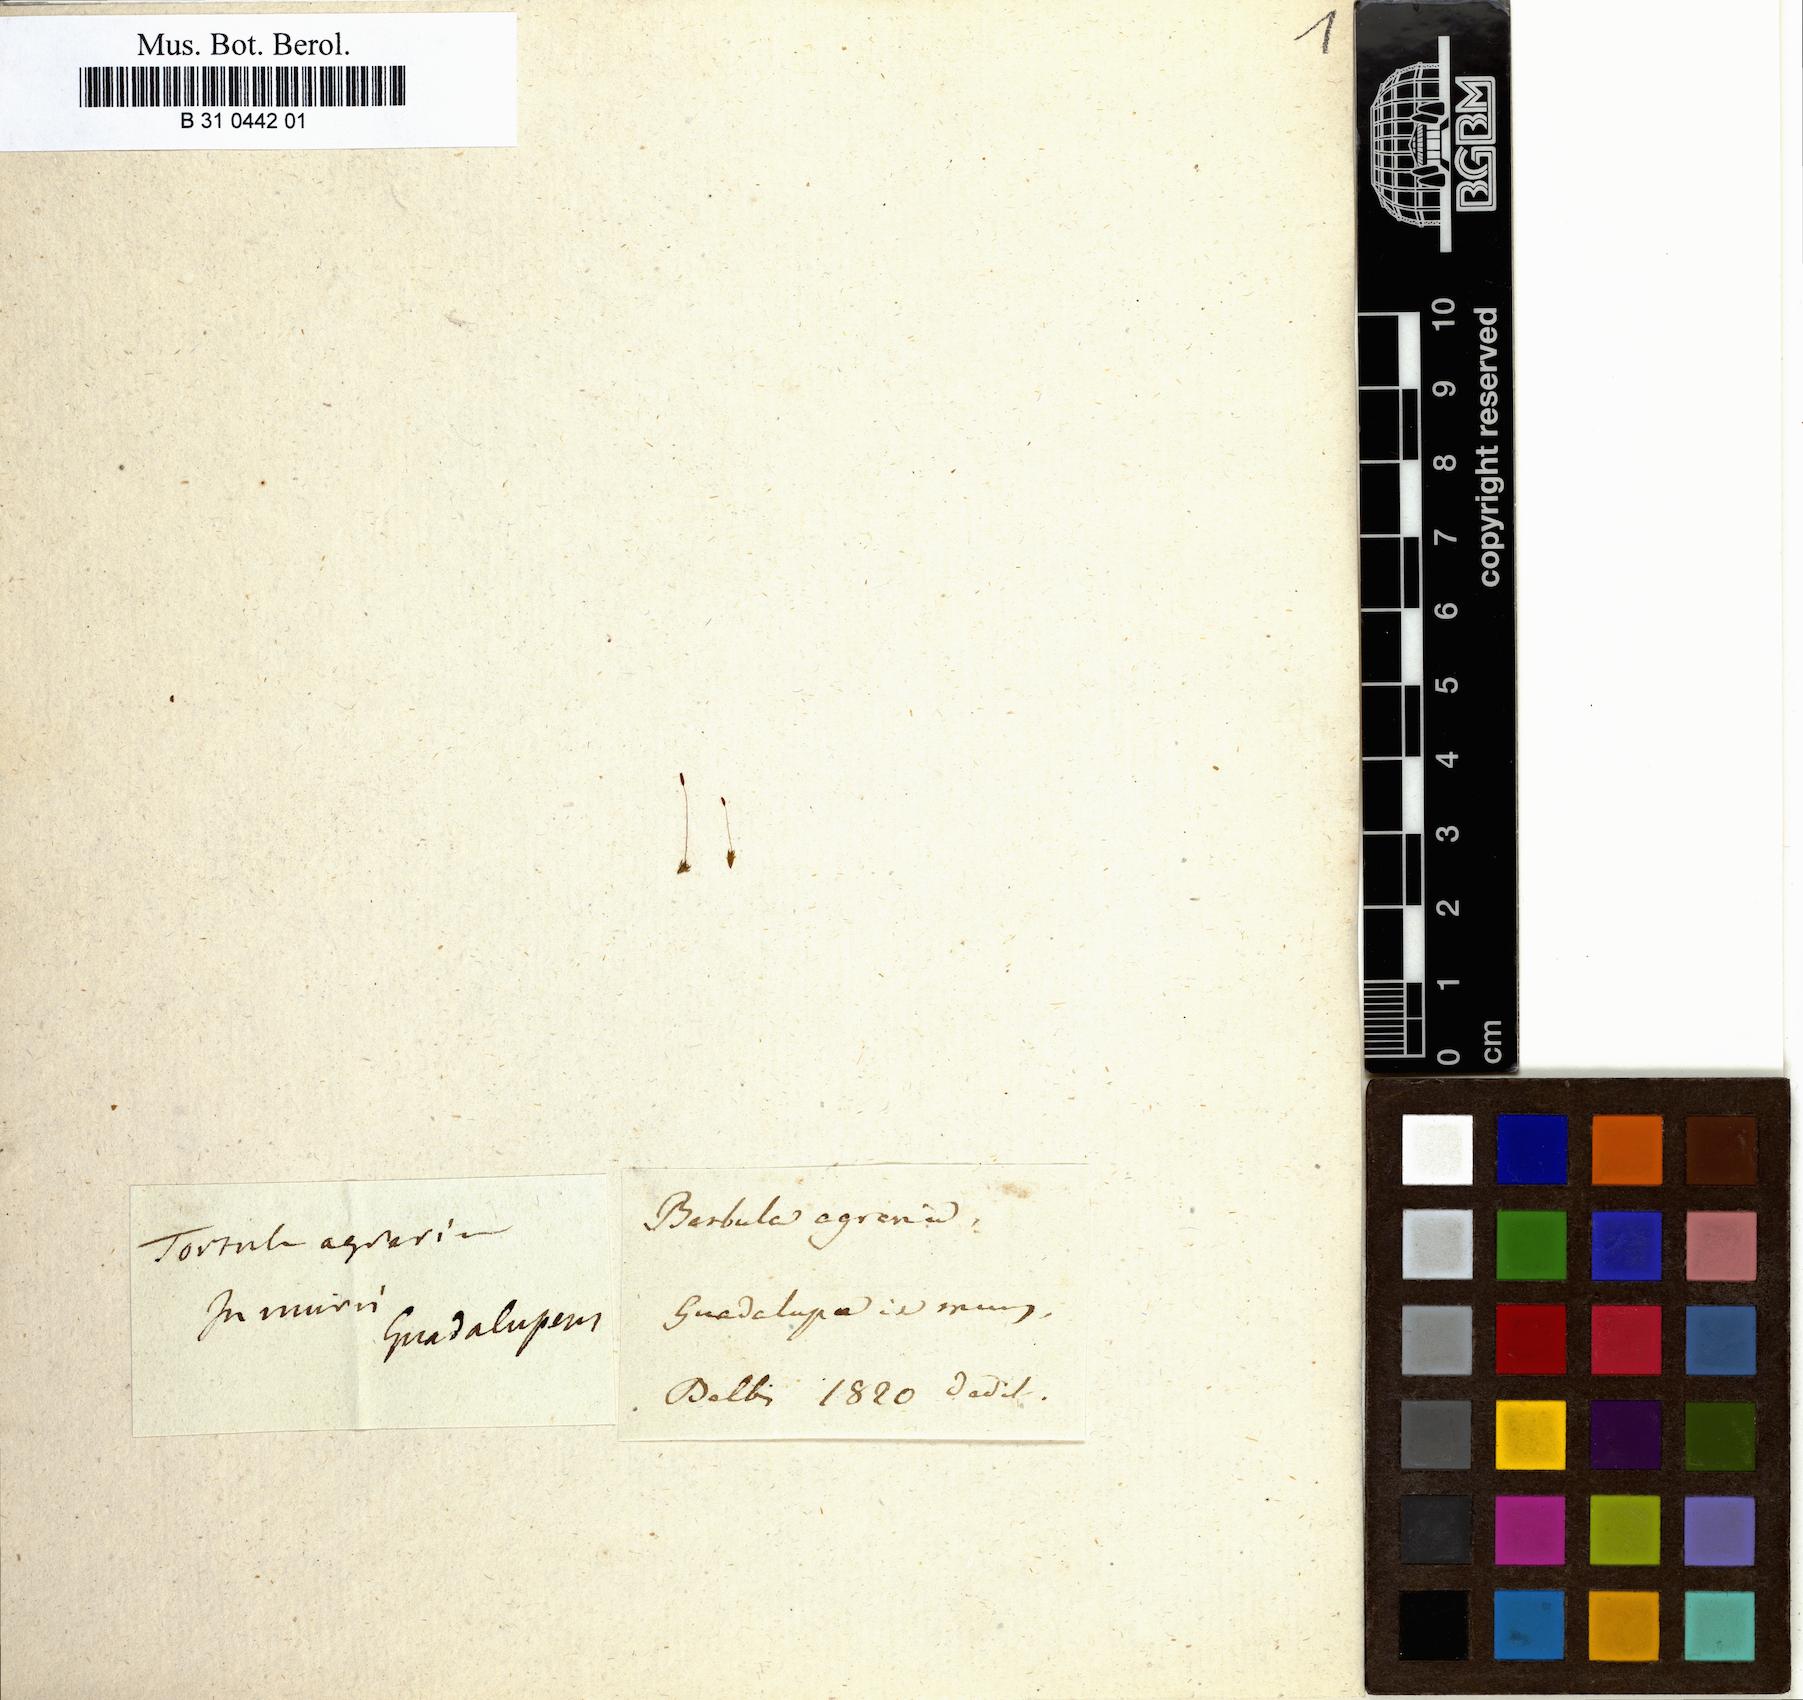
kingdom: Plantae
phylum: Bryophyta
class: Bryopsida
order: Pottiales
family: Pottiaceae
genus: Hyophiladelphus
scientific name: Hyophiladelphus agrarius
